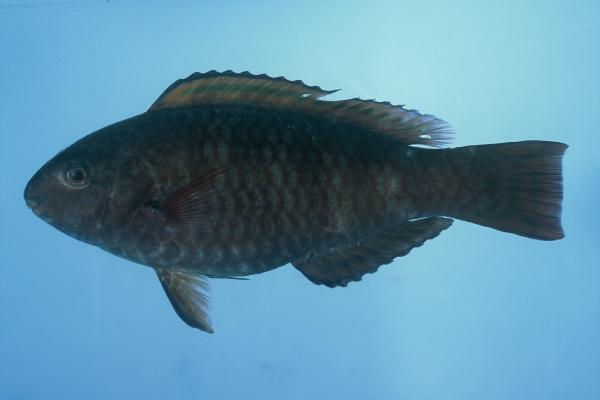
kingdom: Animalia
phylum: Chordata
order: Perciformes
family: Scaridae
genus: Chlorurus
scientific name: Chlorurus atrilunula
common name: Bluemoon parrotfish
